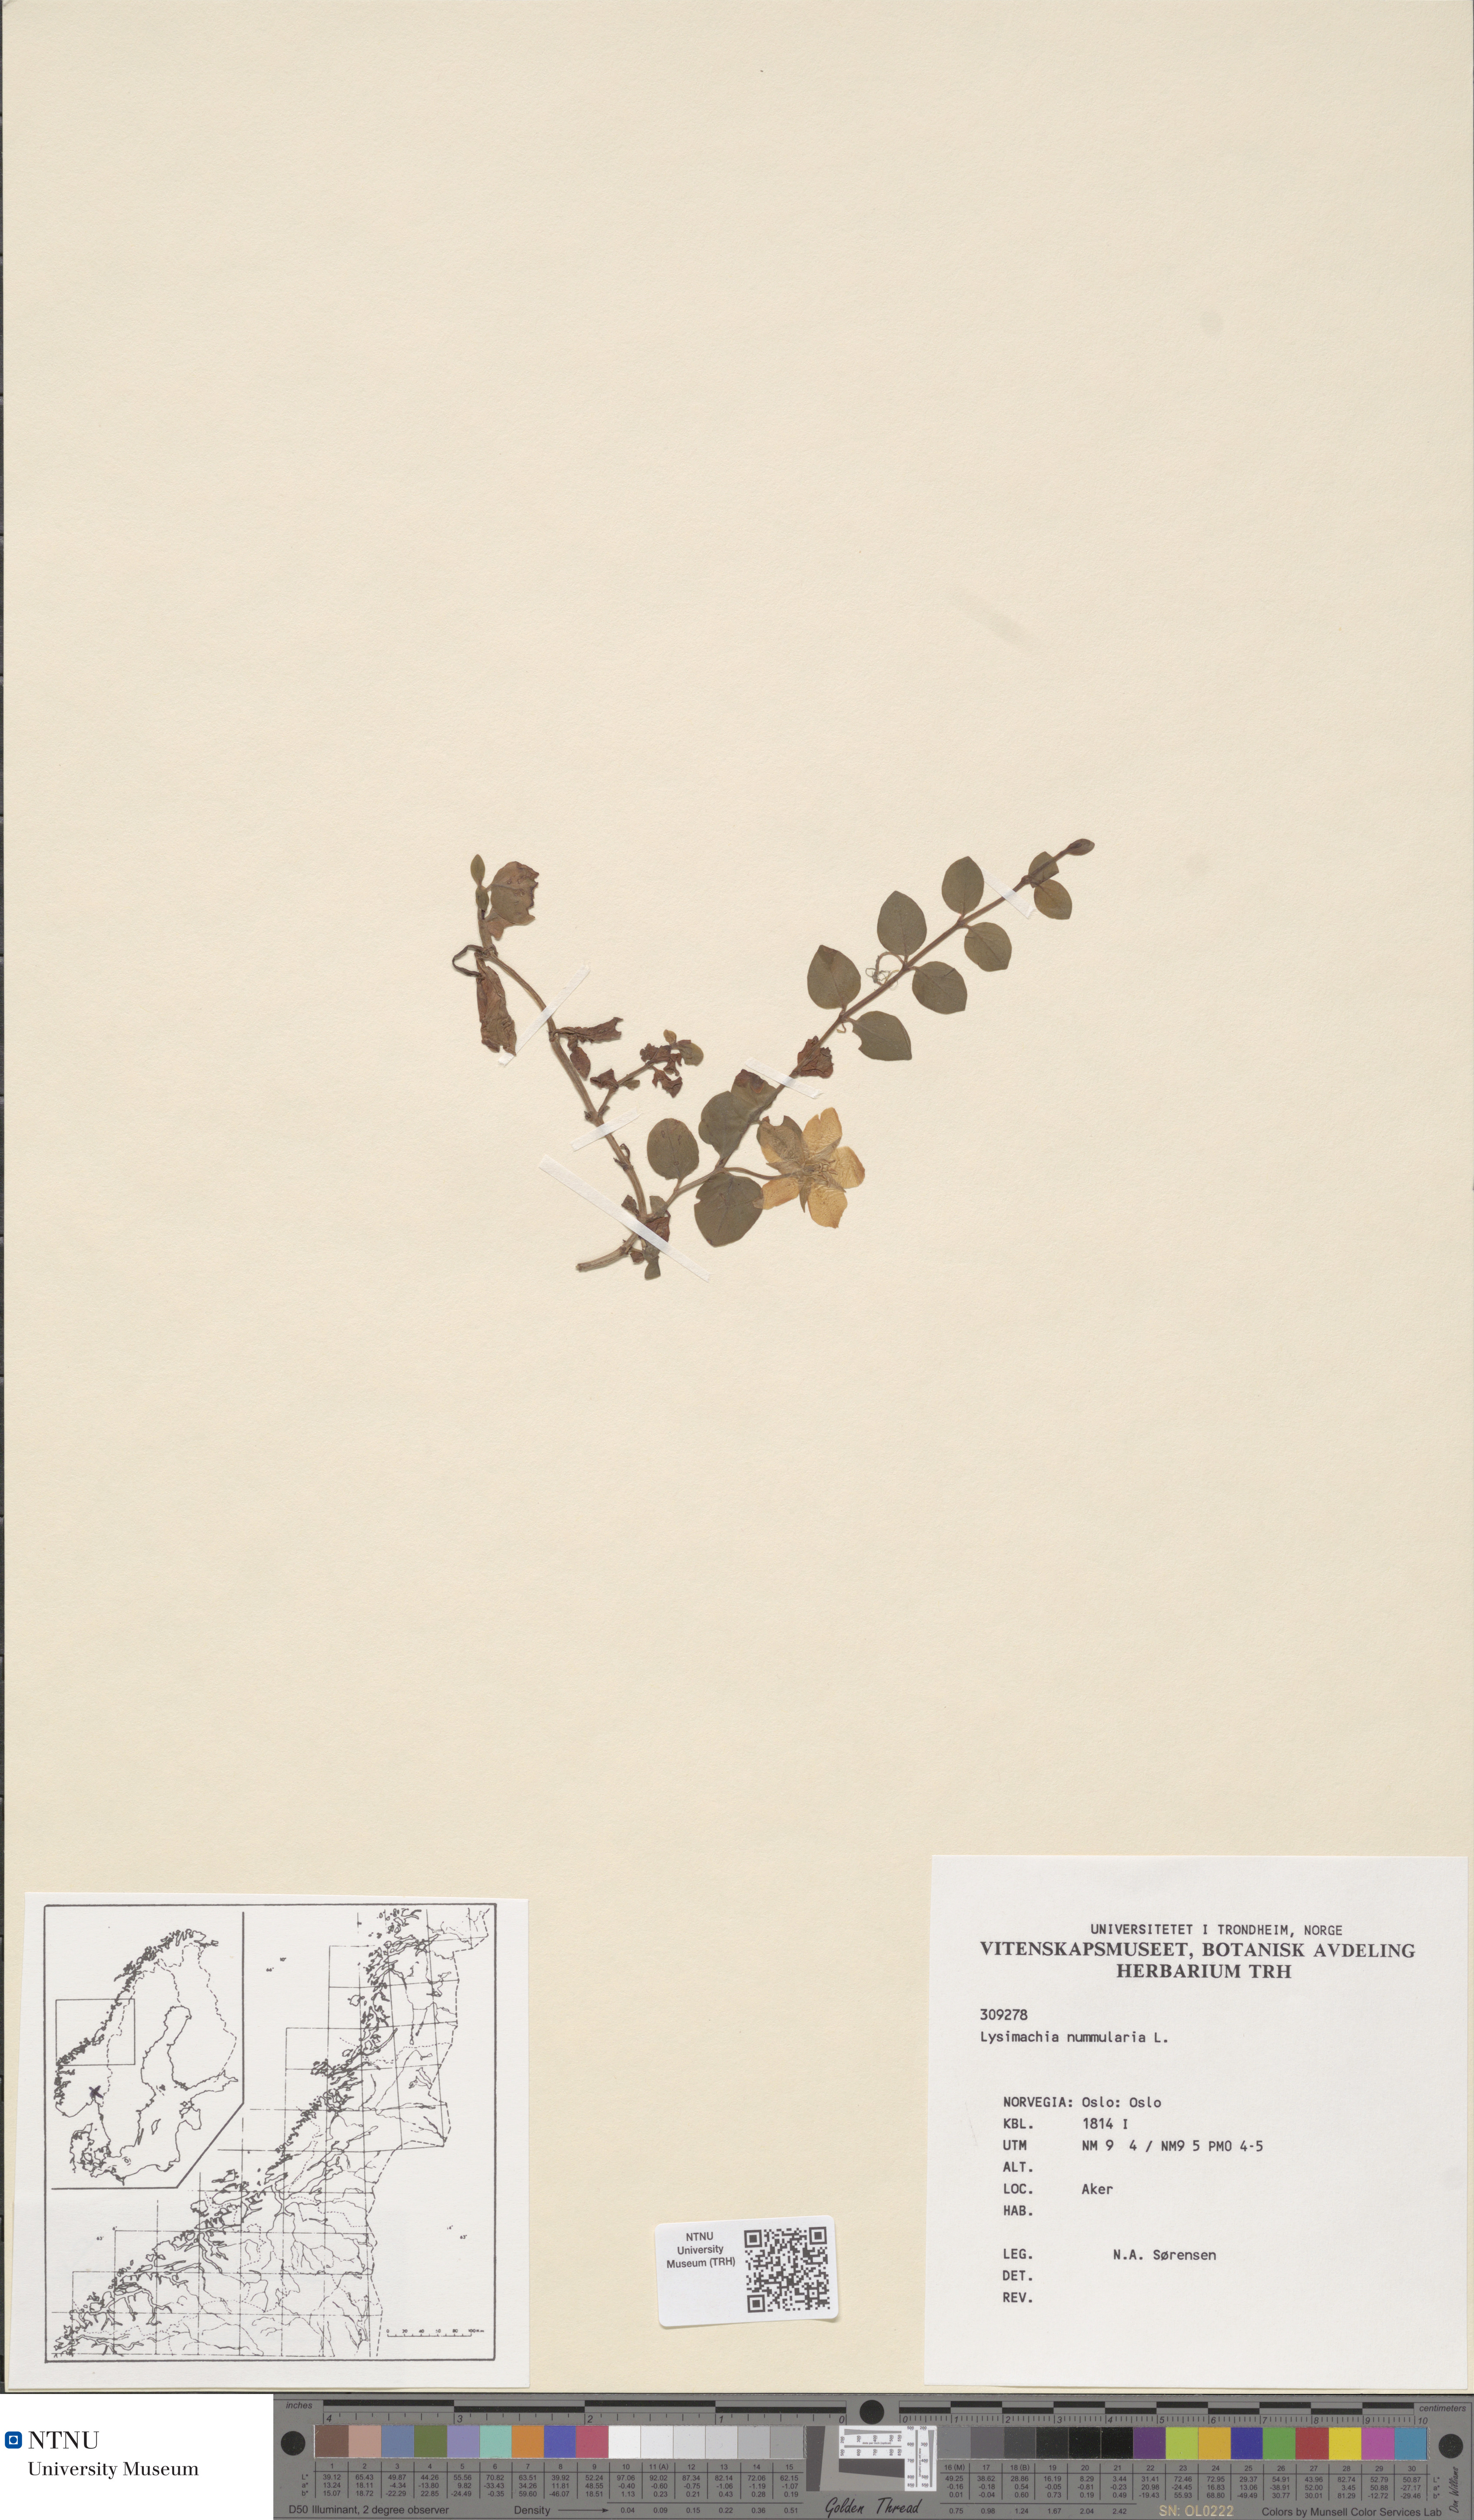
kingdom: Plantae
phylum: Tracheophyta
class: Magnoliopsida
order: Ericales
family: Primulaceae
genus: Lysimachia
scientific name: Lysimachia nummularia
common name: Moneywort
